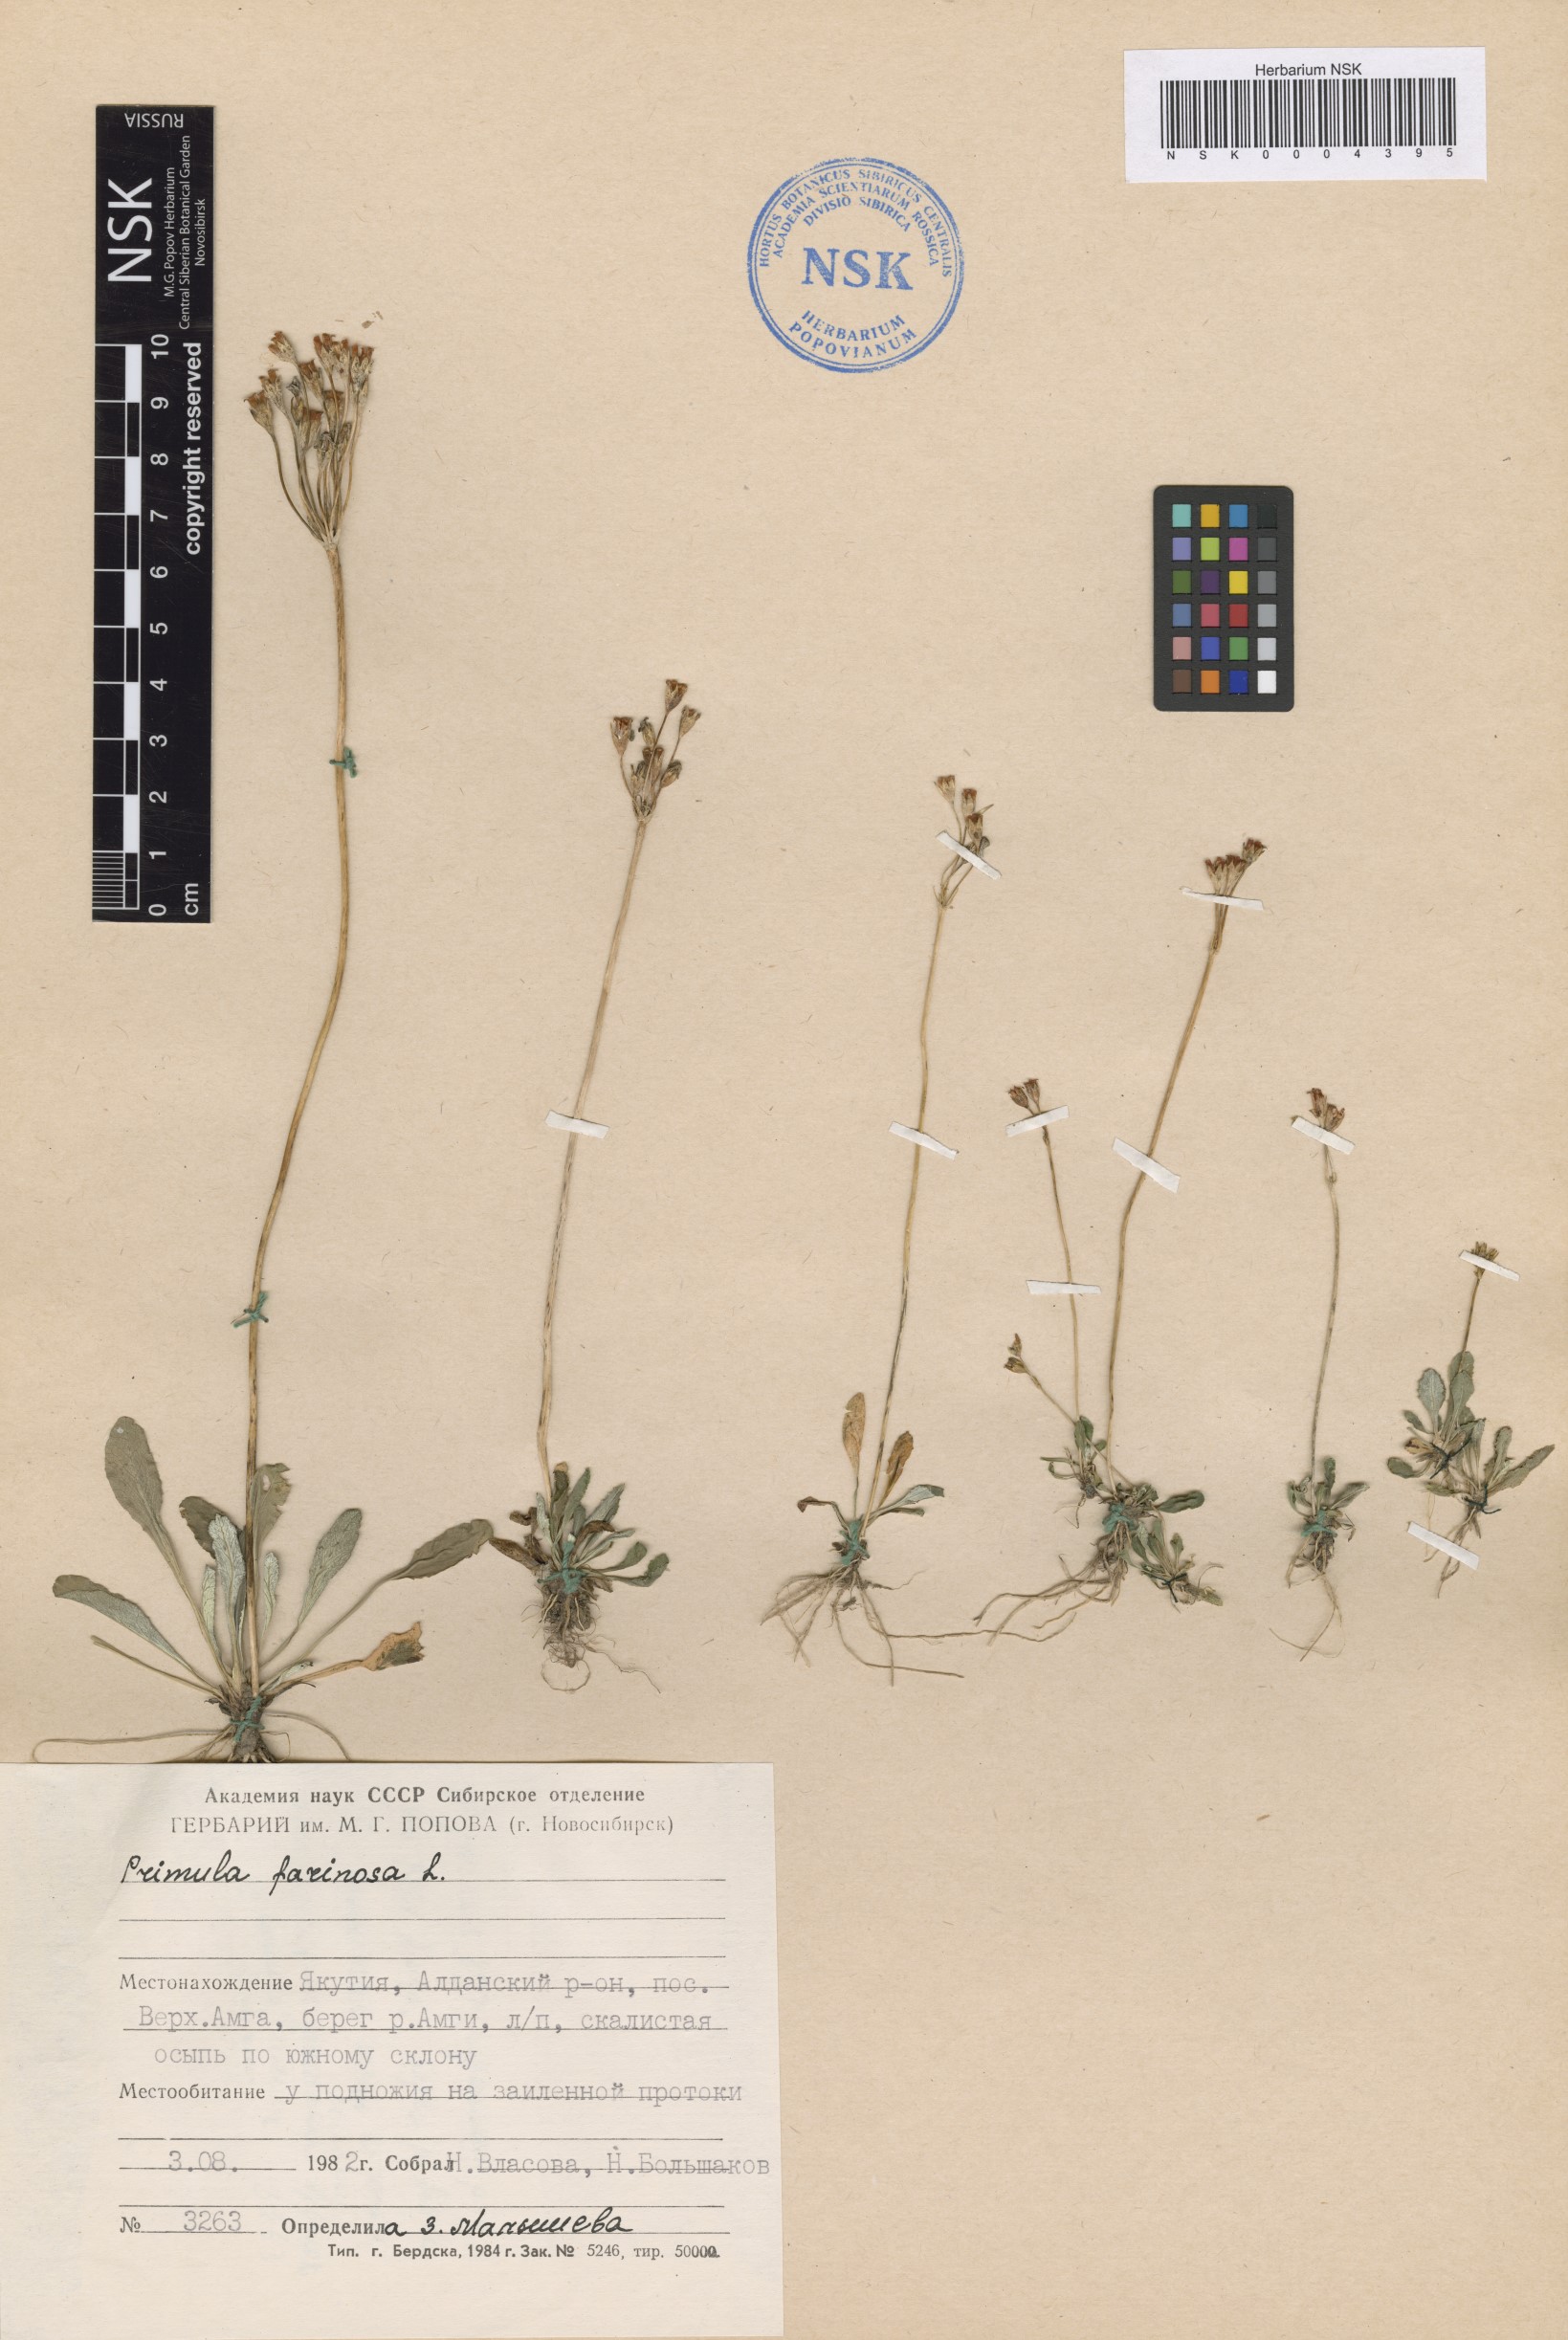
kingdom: Plantae
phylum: Tracheophyta
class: Magnoliopsida
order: Ericales
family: Primulaceae
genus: Primula
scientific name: Primula farinosa
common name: Bird's-eye primrose
